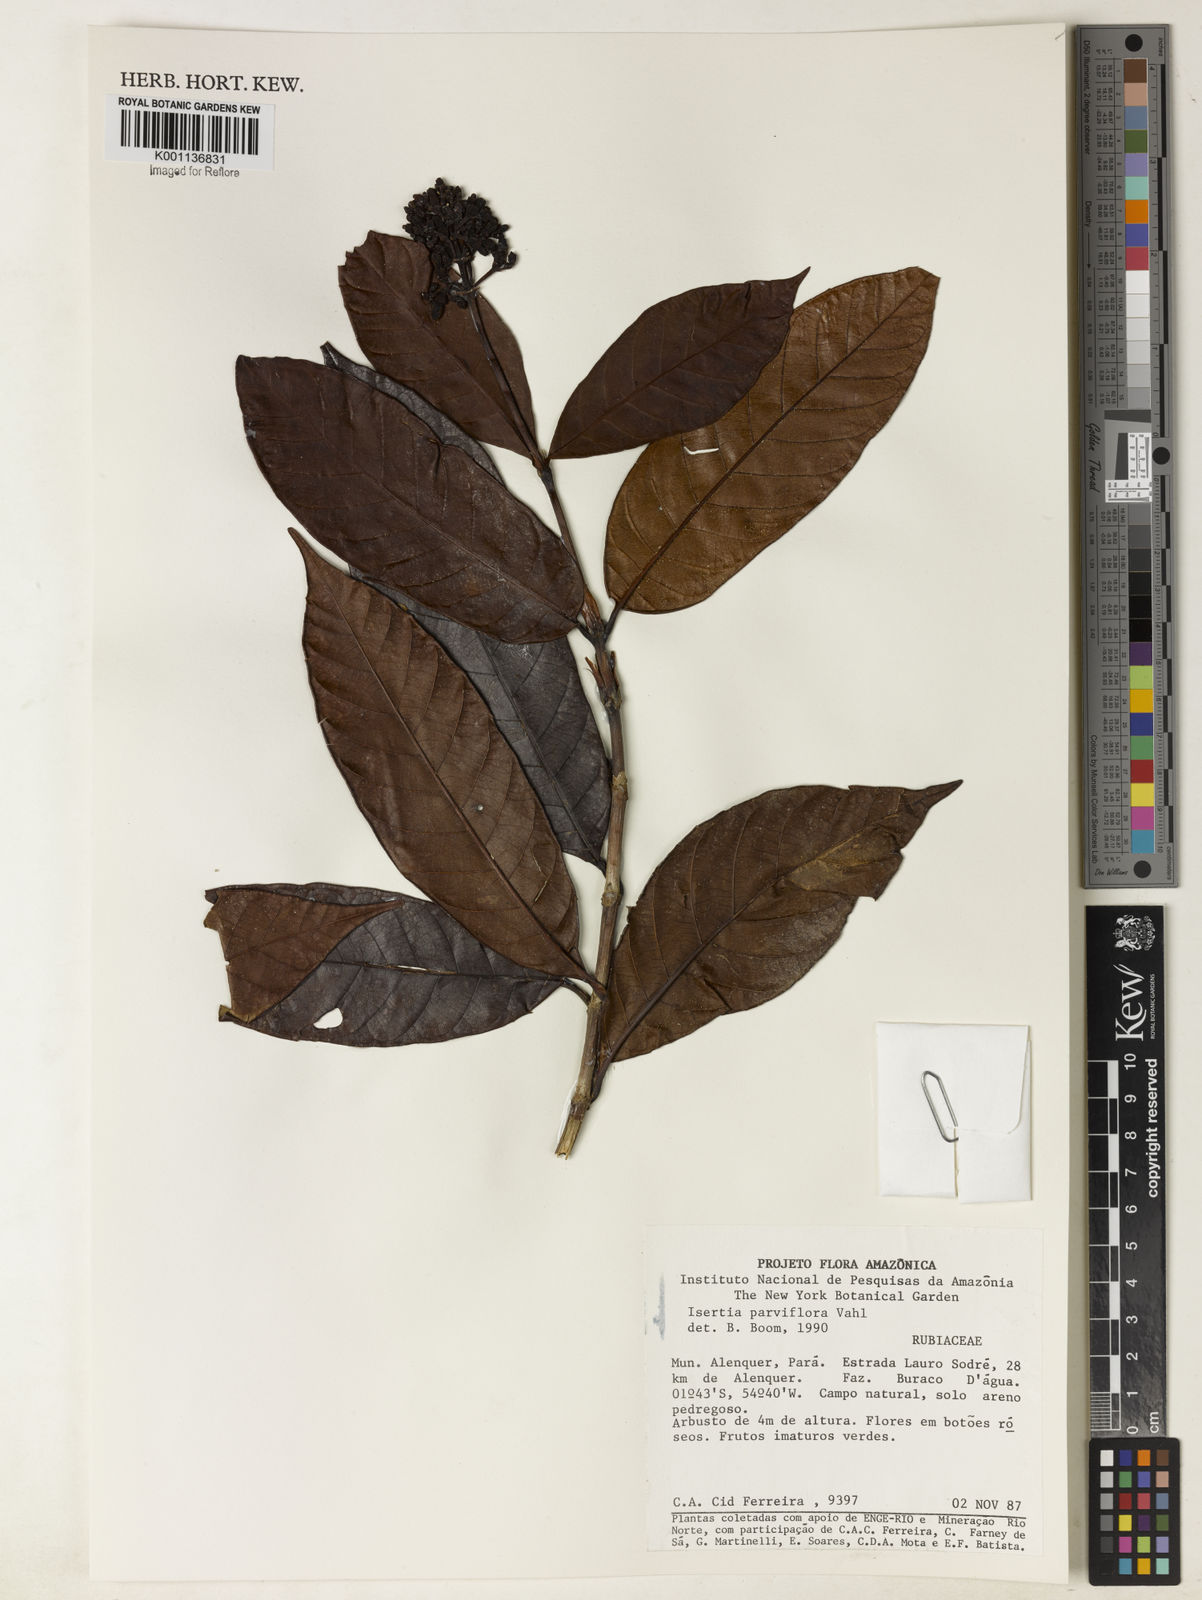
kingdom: Plantae
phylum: Tracheophyta
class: Magnoliopsida
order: Gentianales
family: Rubiaceae
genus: Isertia
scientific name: Isertia parviflora
